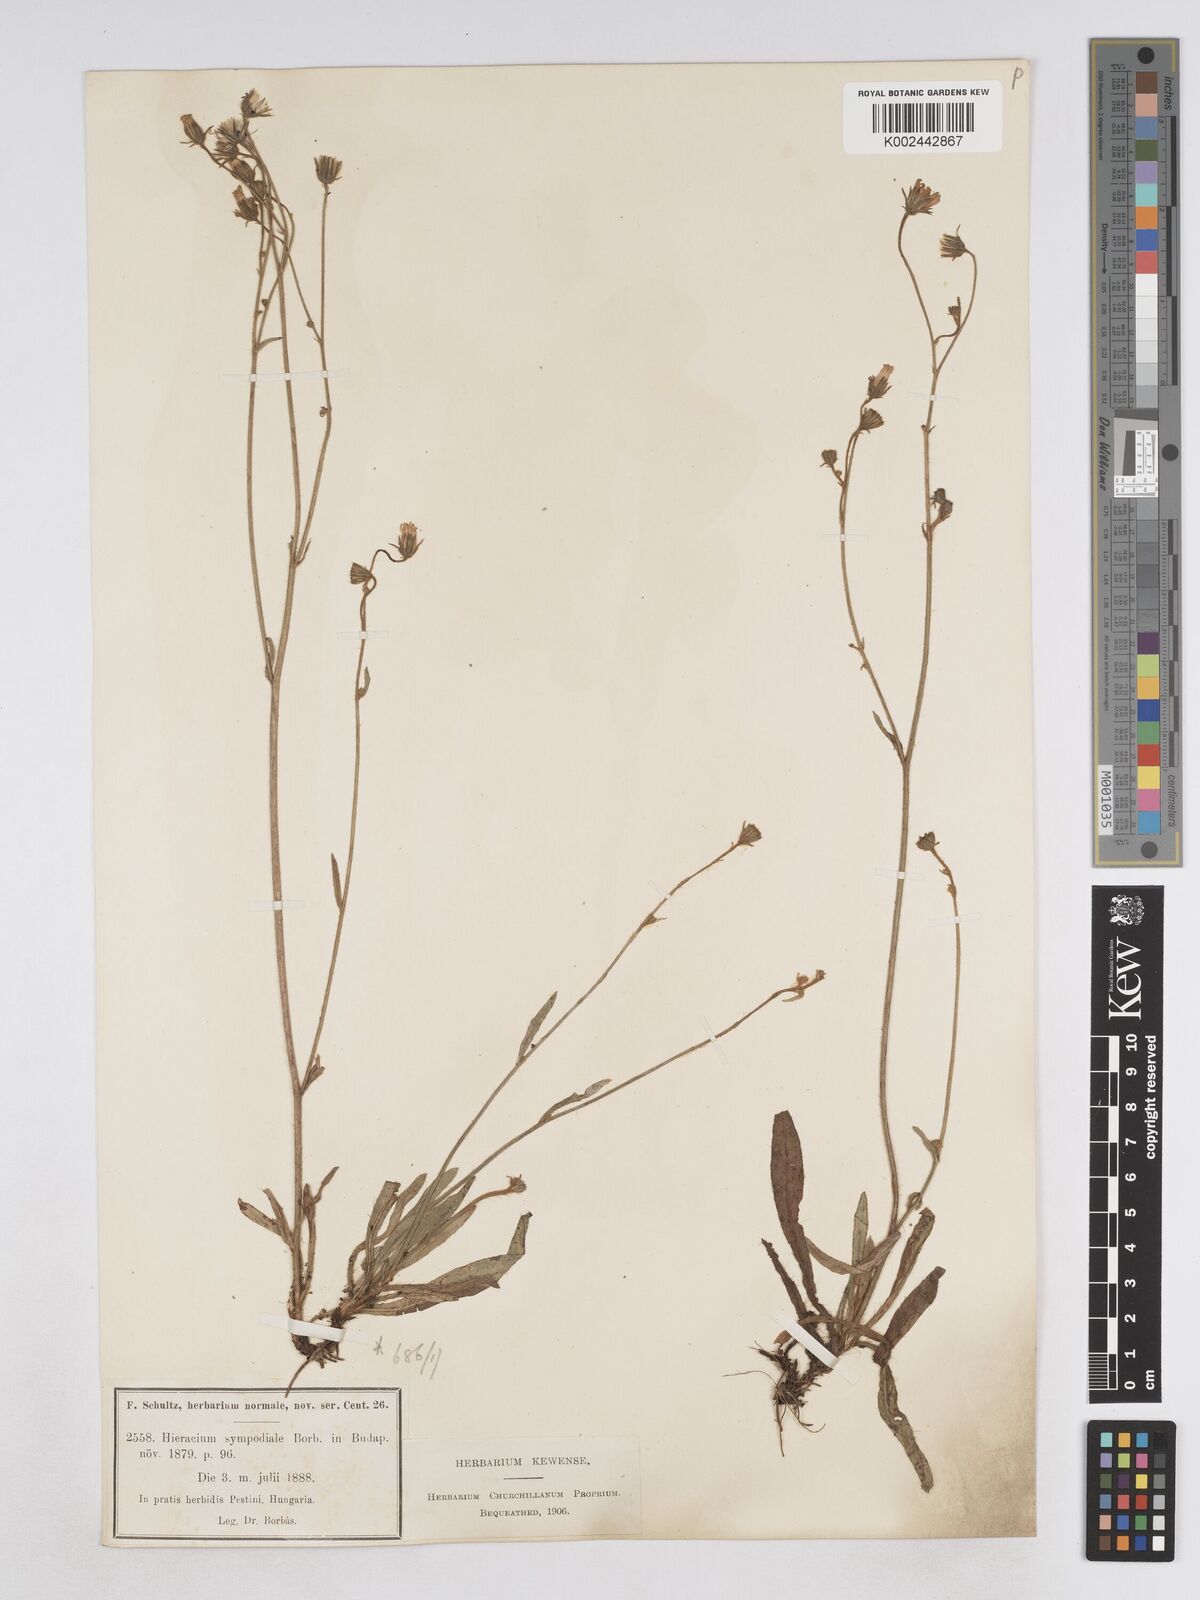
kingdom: Plantae
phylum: Tracheophyta
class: Magnoliopsida
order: Asterales
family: Asteraceae
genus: Pilosella
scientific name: Pilosella bifurca
